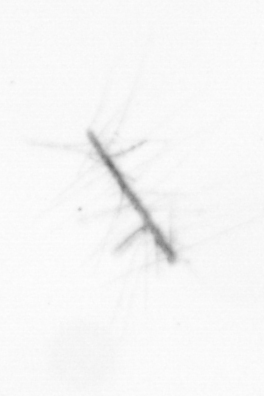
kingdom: Chromista
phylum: Ochrophyta
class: Bacillariophyceae
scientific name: Bacillariophyceae
